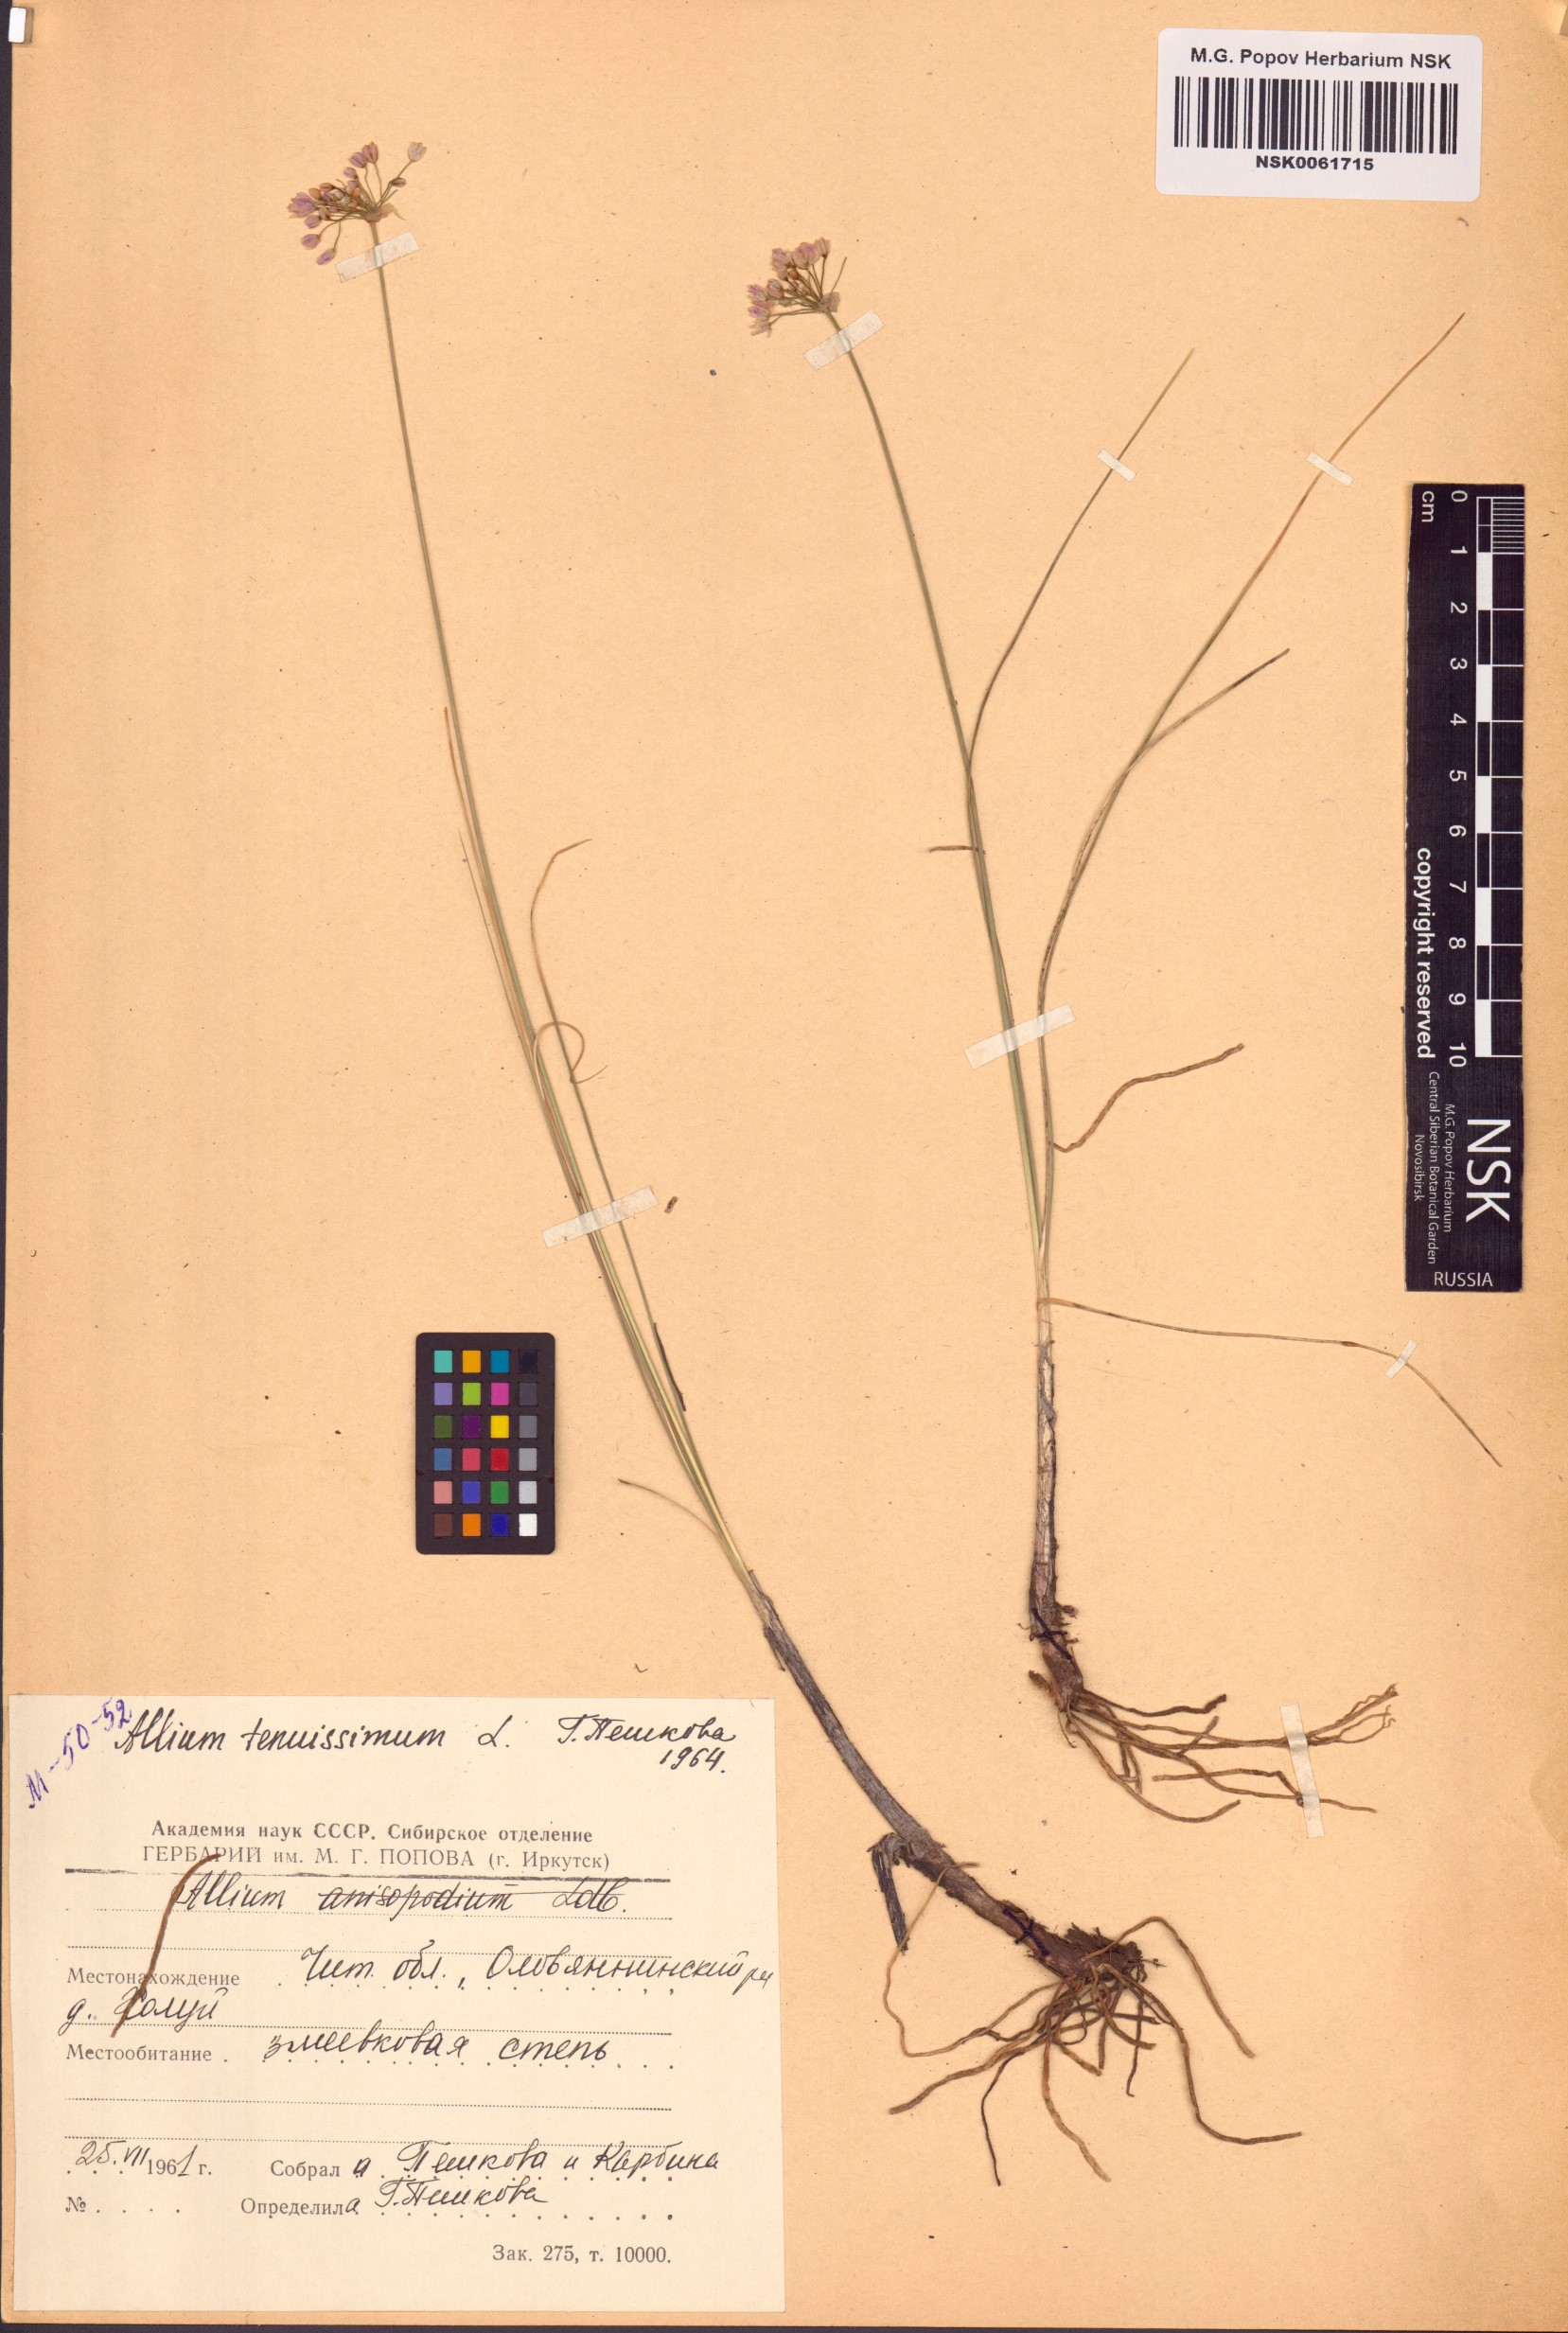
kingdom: Plantae
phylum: Tracheophyta
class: Liliopsida
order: Asparagales
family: Amaryllidaceae
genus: Allium
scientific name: Allium tenuissimum
